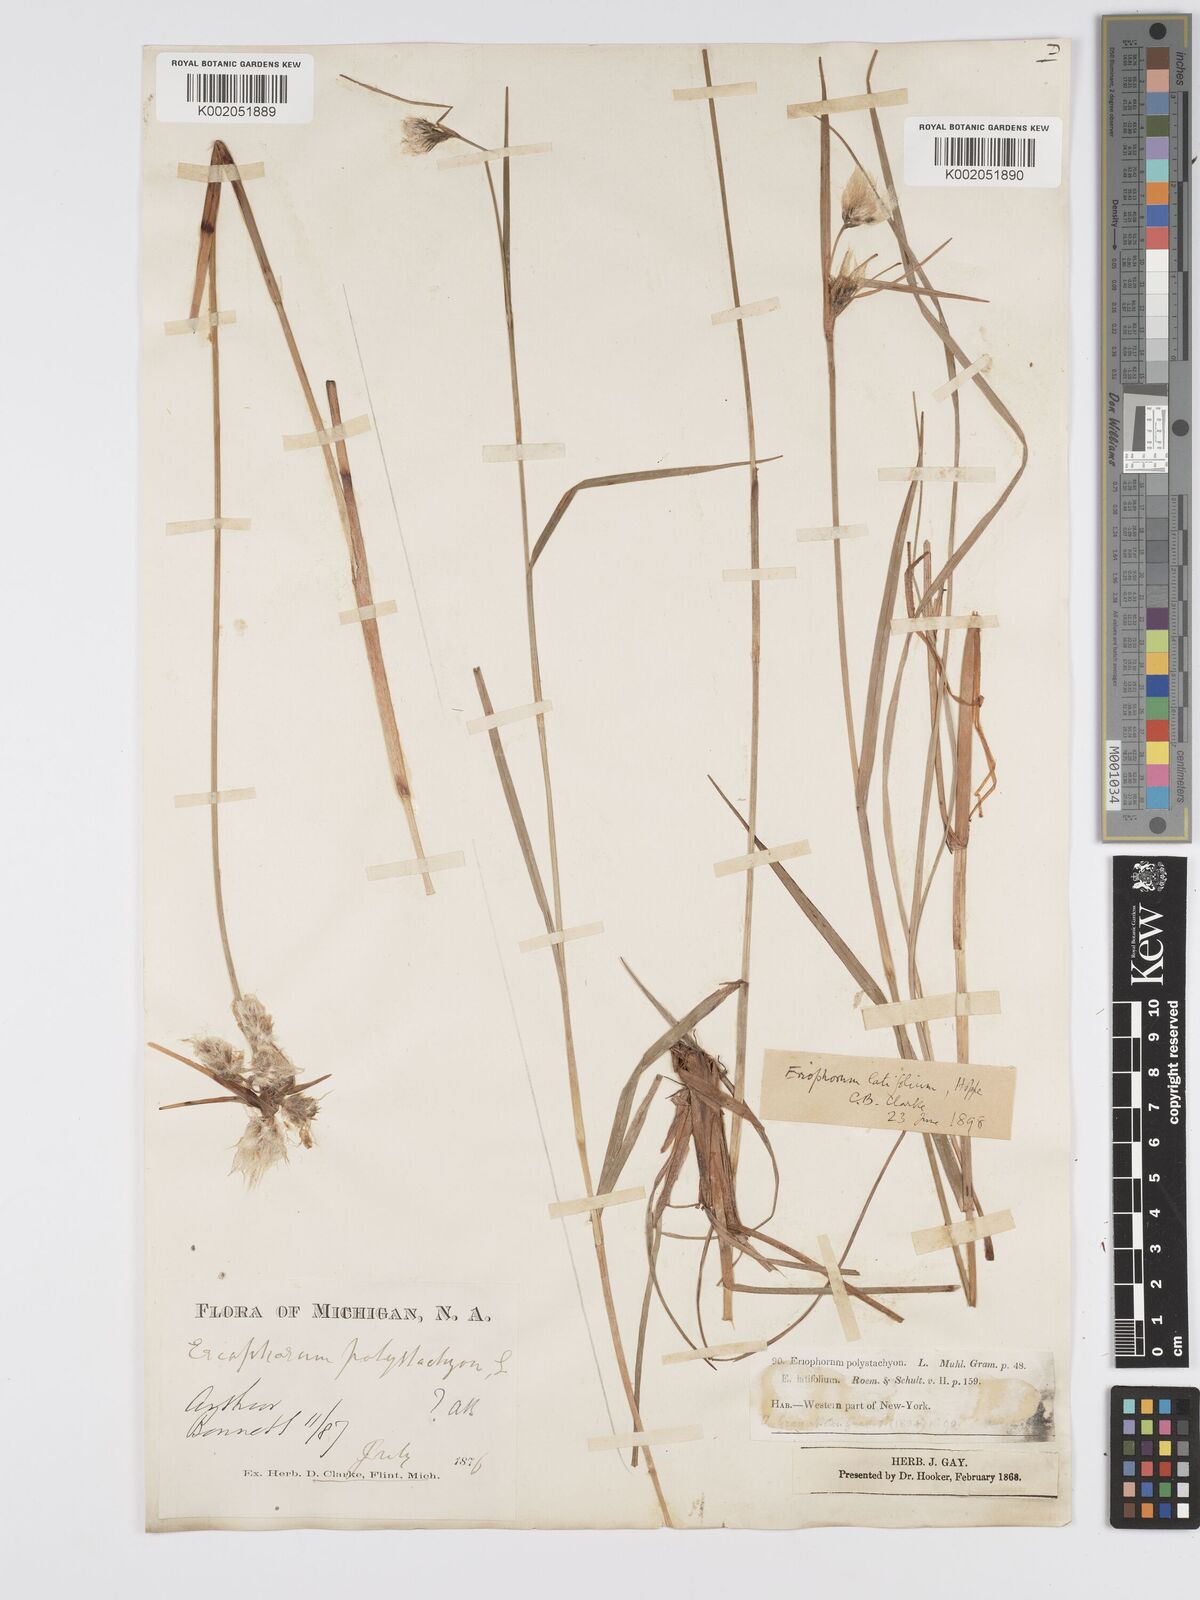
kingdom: Plantae
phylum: Tracheophyta
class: Liliopsida
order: Poales
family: Cyperaceae
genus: Eriophorum
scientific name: Eriophorum latifolium
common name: Broad-leaved cottongrass
